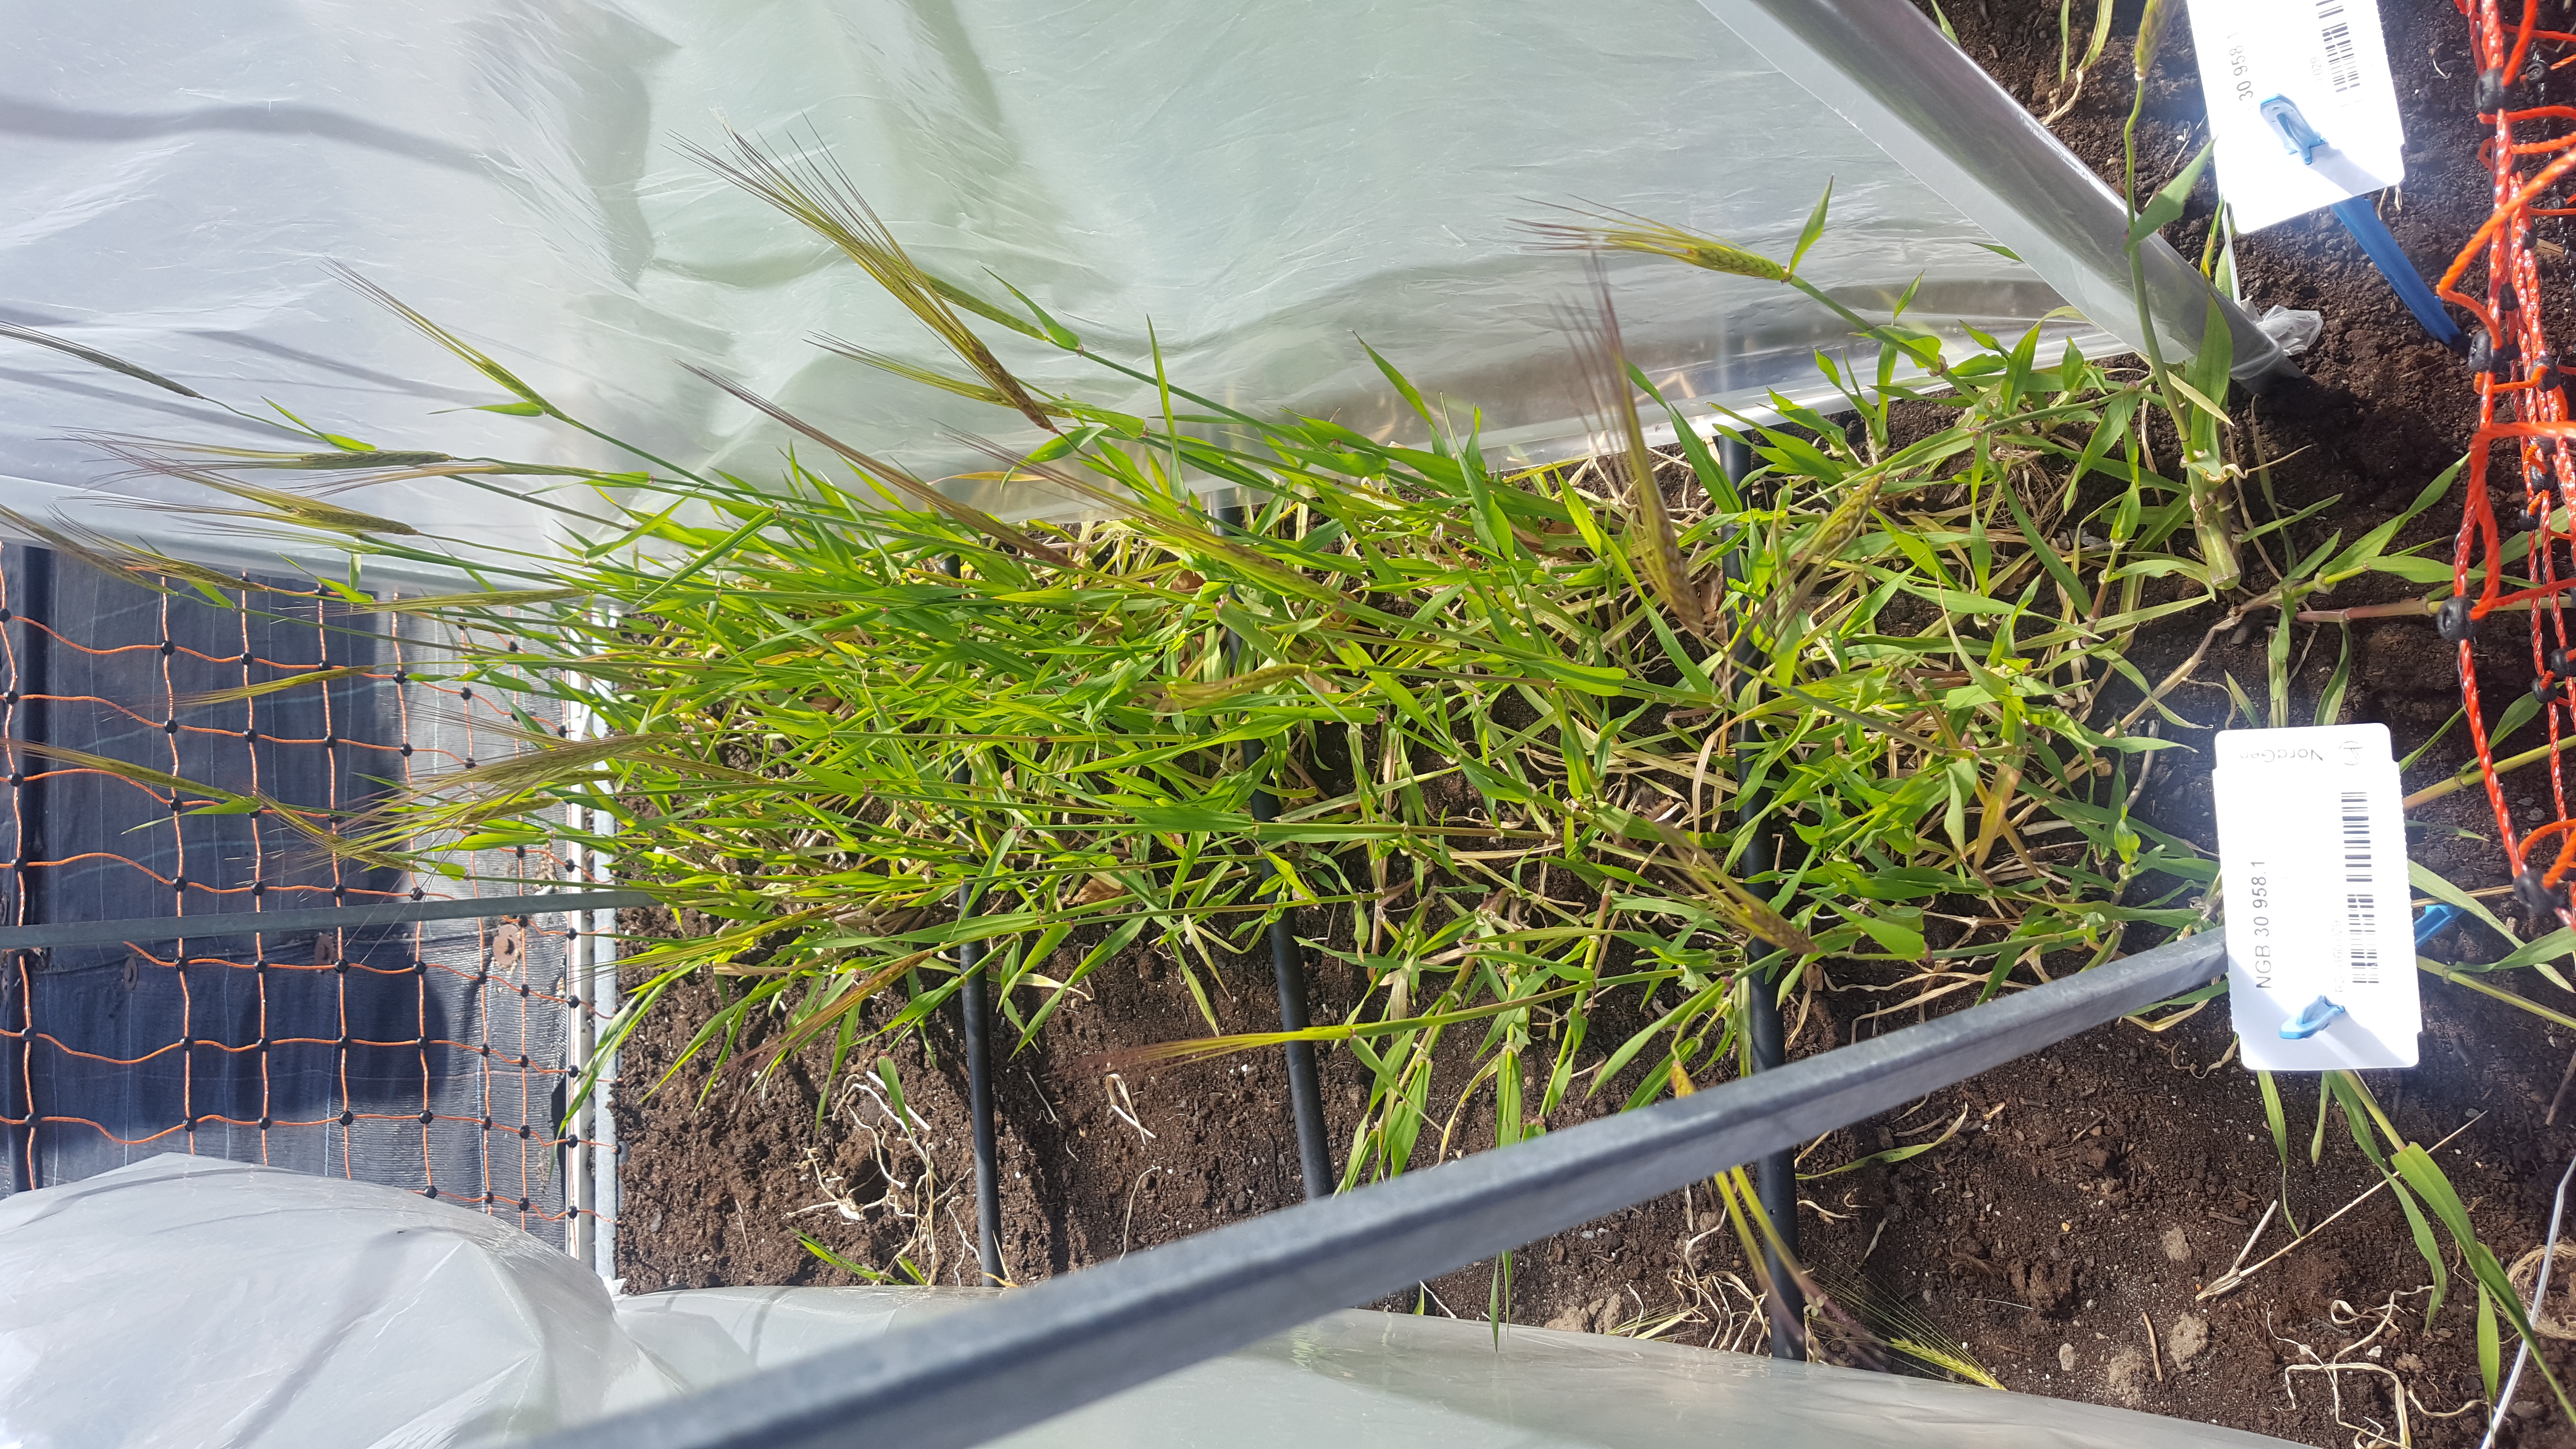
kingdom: Plantae
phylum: Tracheophyta
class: Liliopsida
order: Poales
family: Poaceae
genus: Hordeum
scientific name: Hordeum spontaneum
